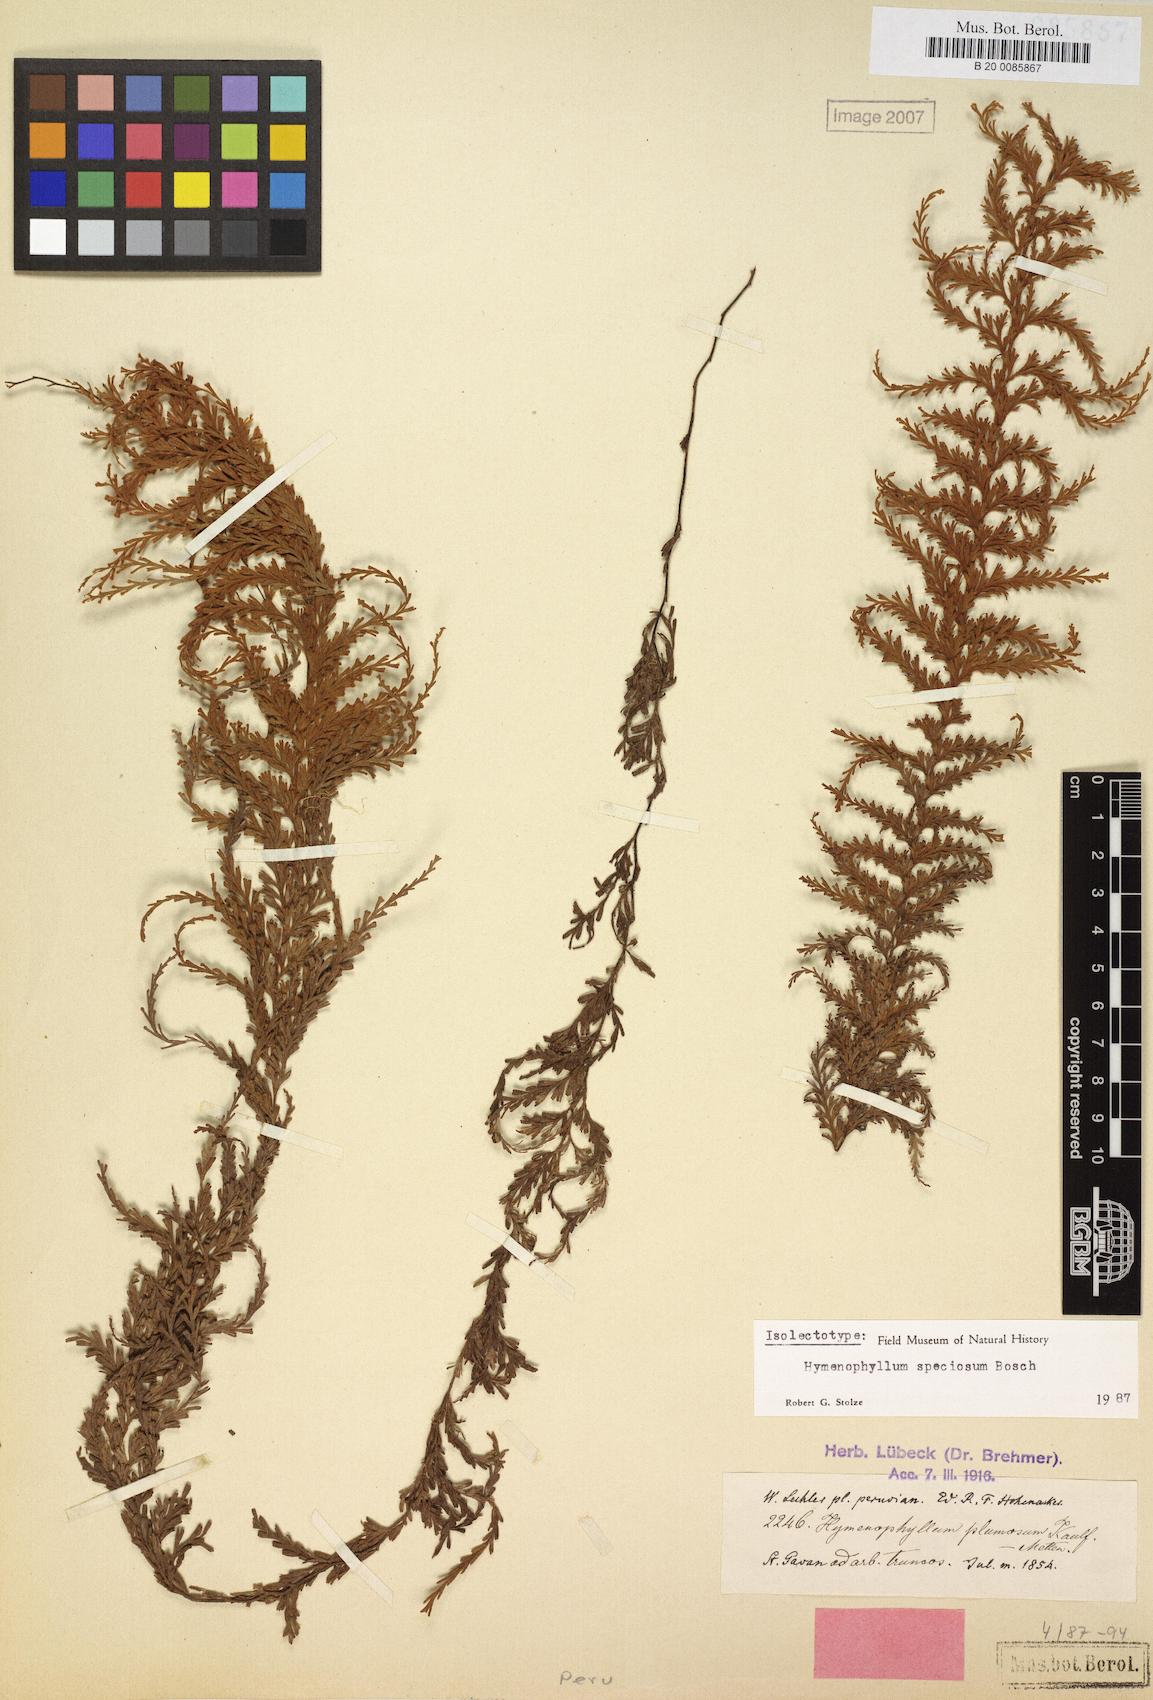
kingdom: Plantae
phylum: Tracheophyta
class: Polypodiopsida
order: Hymenophyllales
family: Hymenophyllaceae
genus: Hymenophyllum
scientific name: Hymenophyllum sericeum
